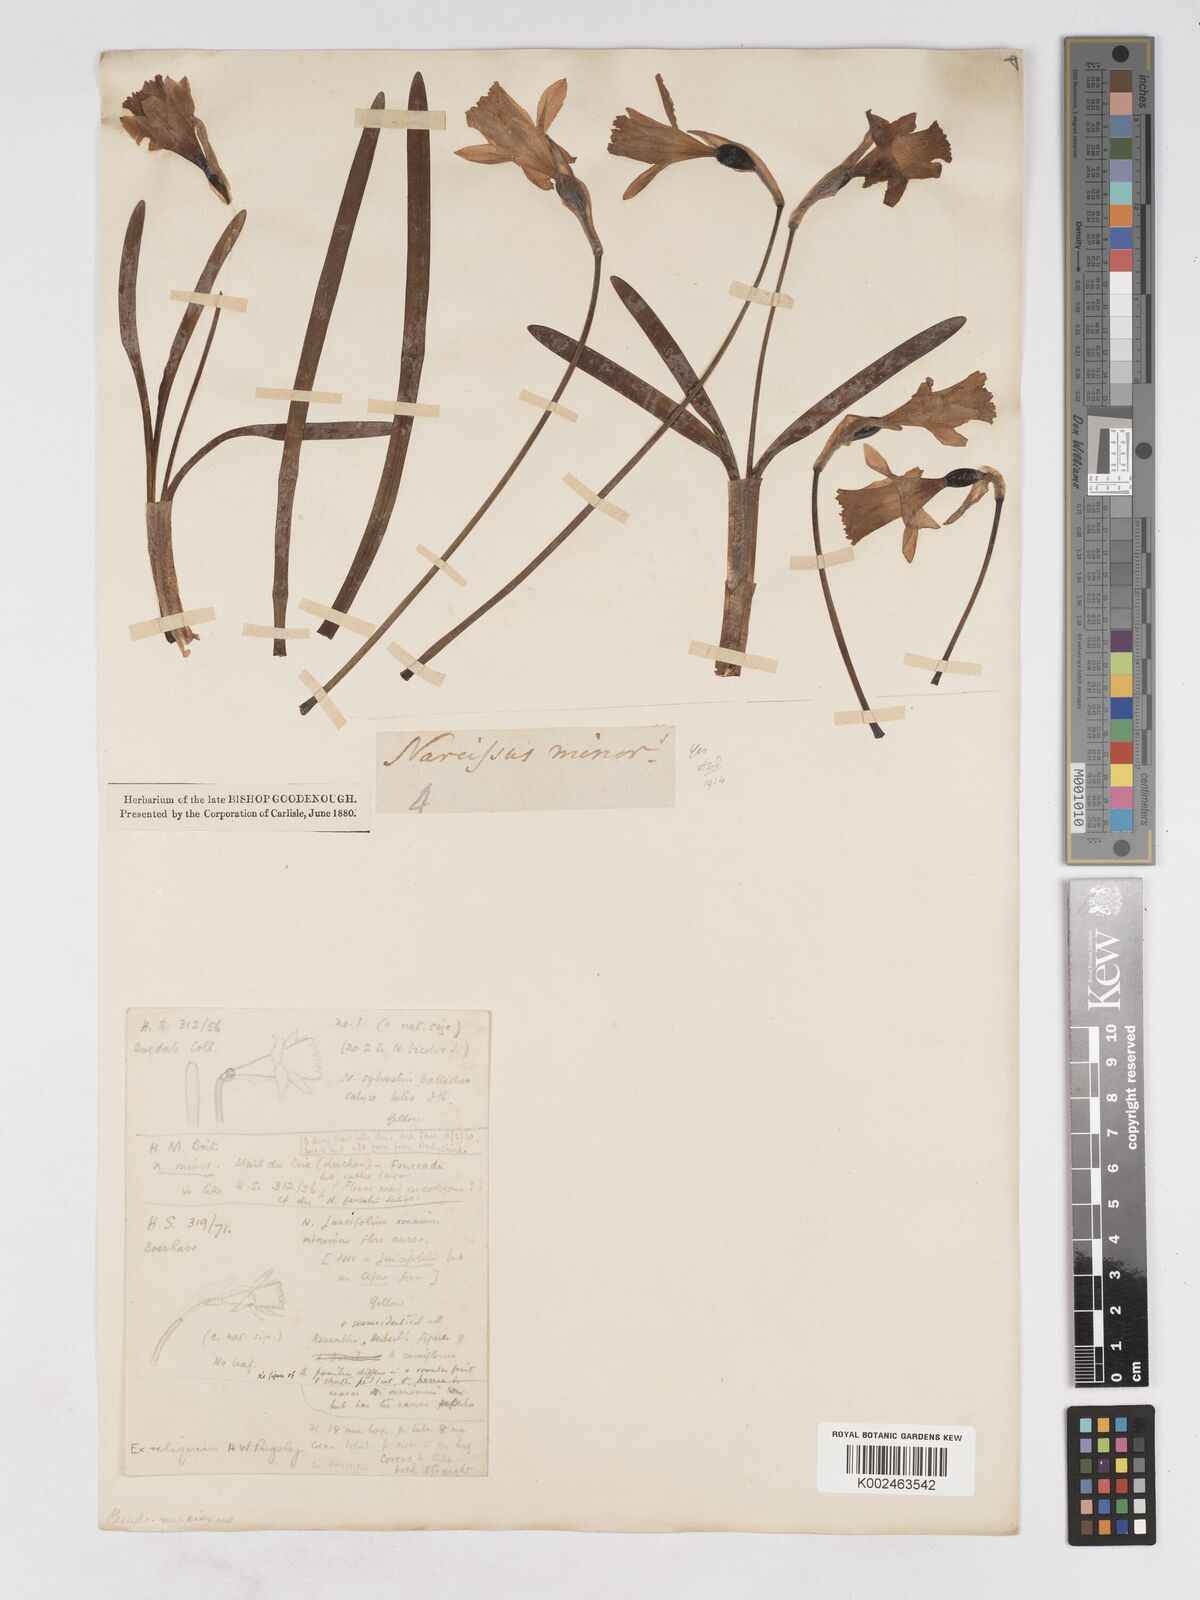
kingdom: Plantae
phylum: Tracheophyta
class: Liliopsida
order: Asparagales
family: Amaryllidaceae
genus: Narcissus
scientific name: Narcissus minor
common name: Lesser daffodil
